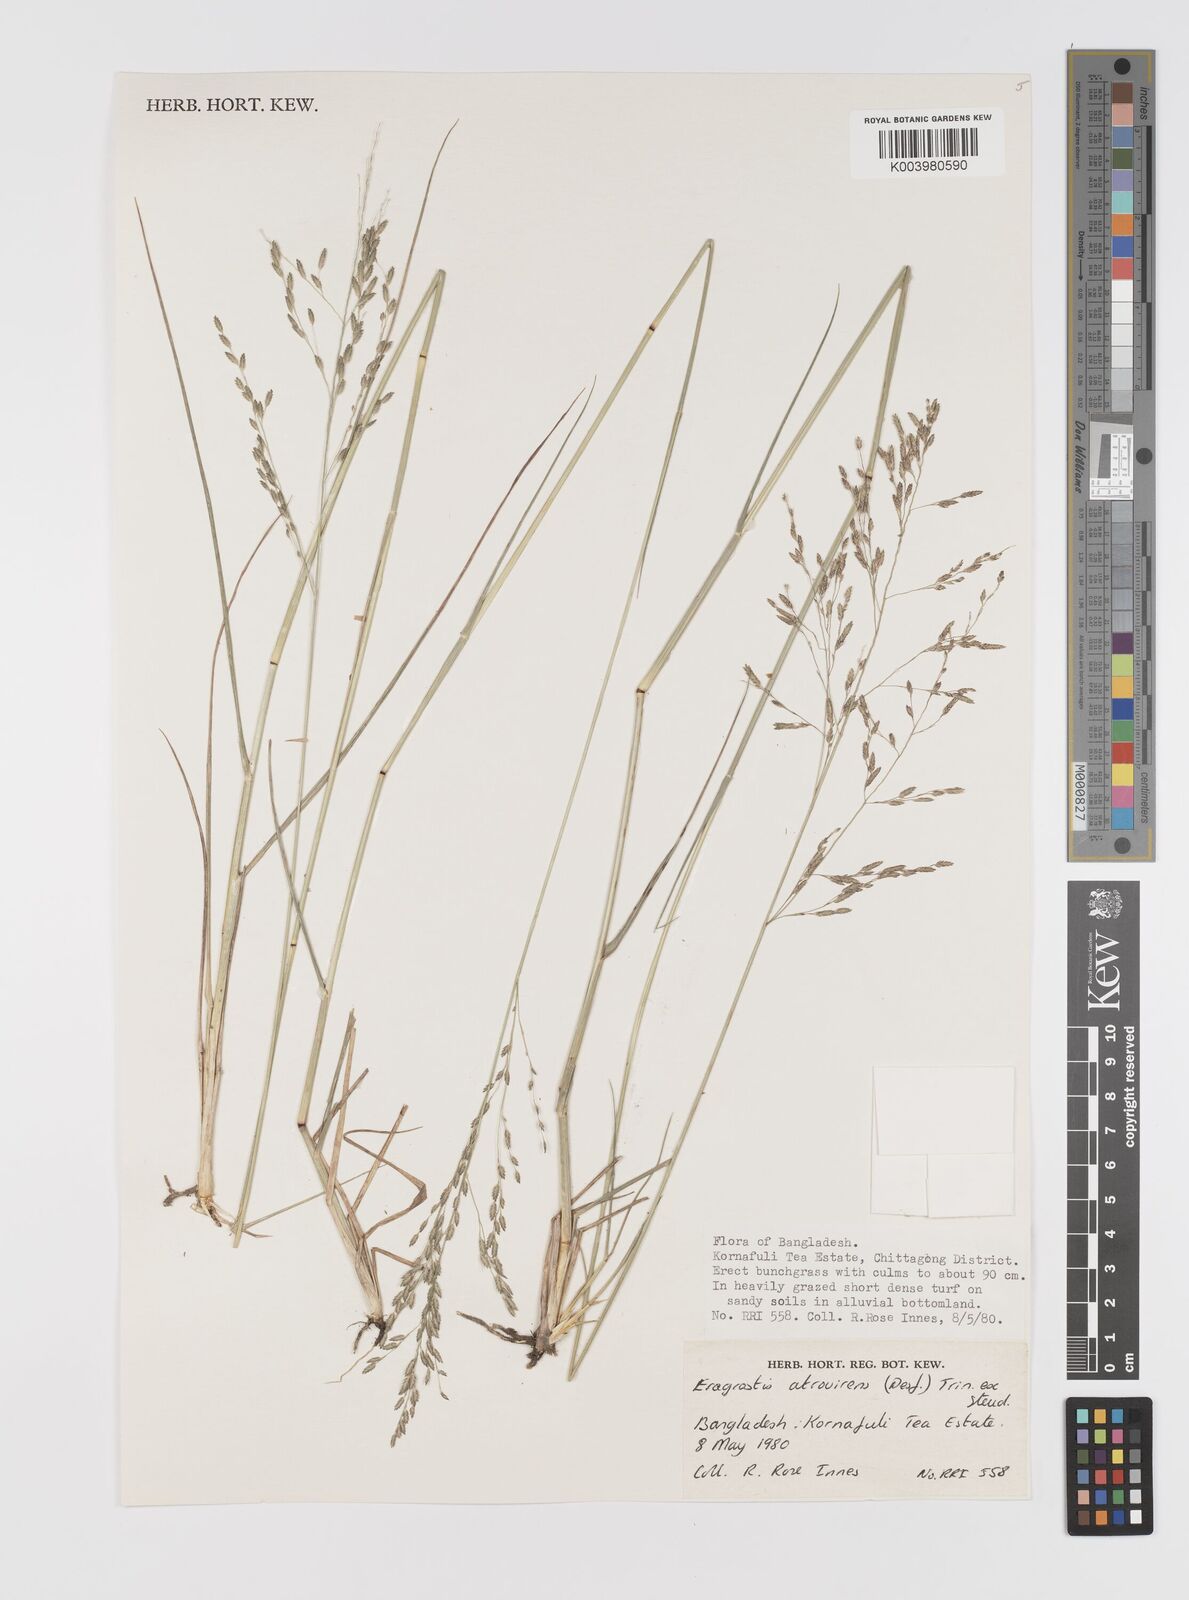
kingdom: Plantae
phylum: Tracheophyta
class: Liliopsida
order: Poales
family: Poaceae
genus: Eragrostis
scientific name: Eragrostis atrovirens
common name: Thalia lovegrass
